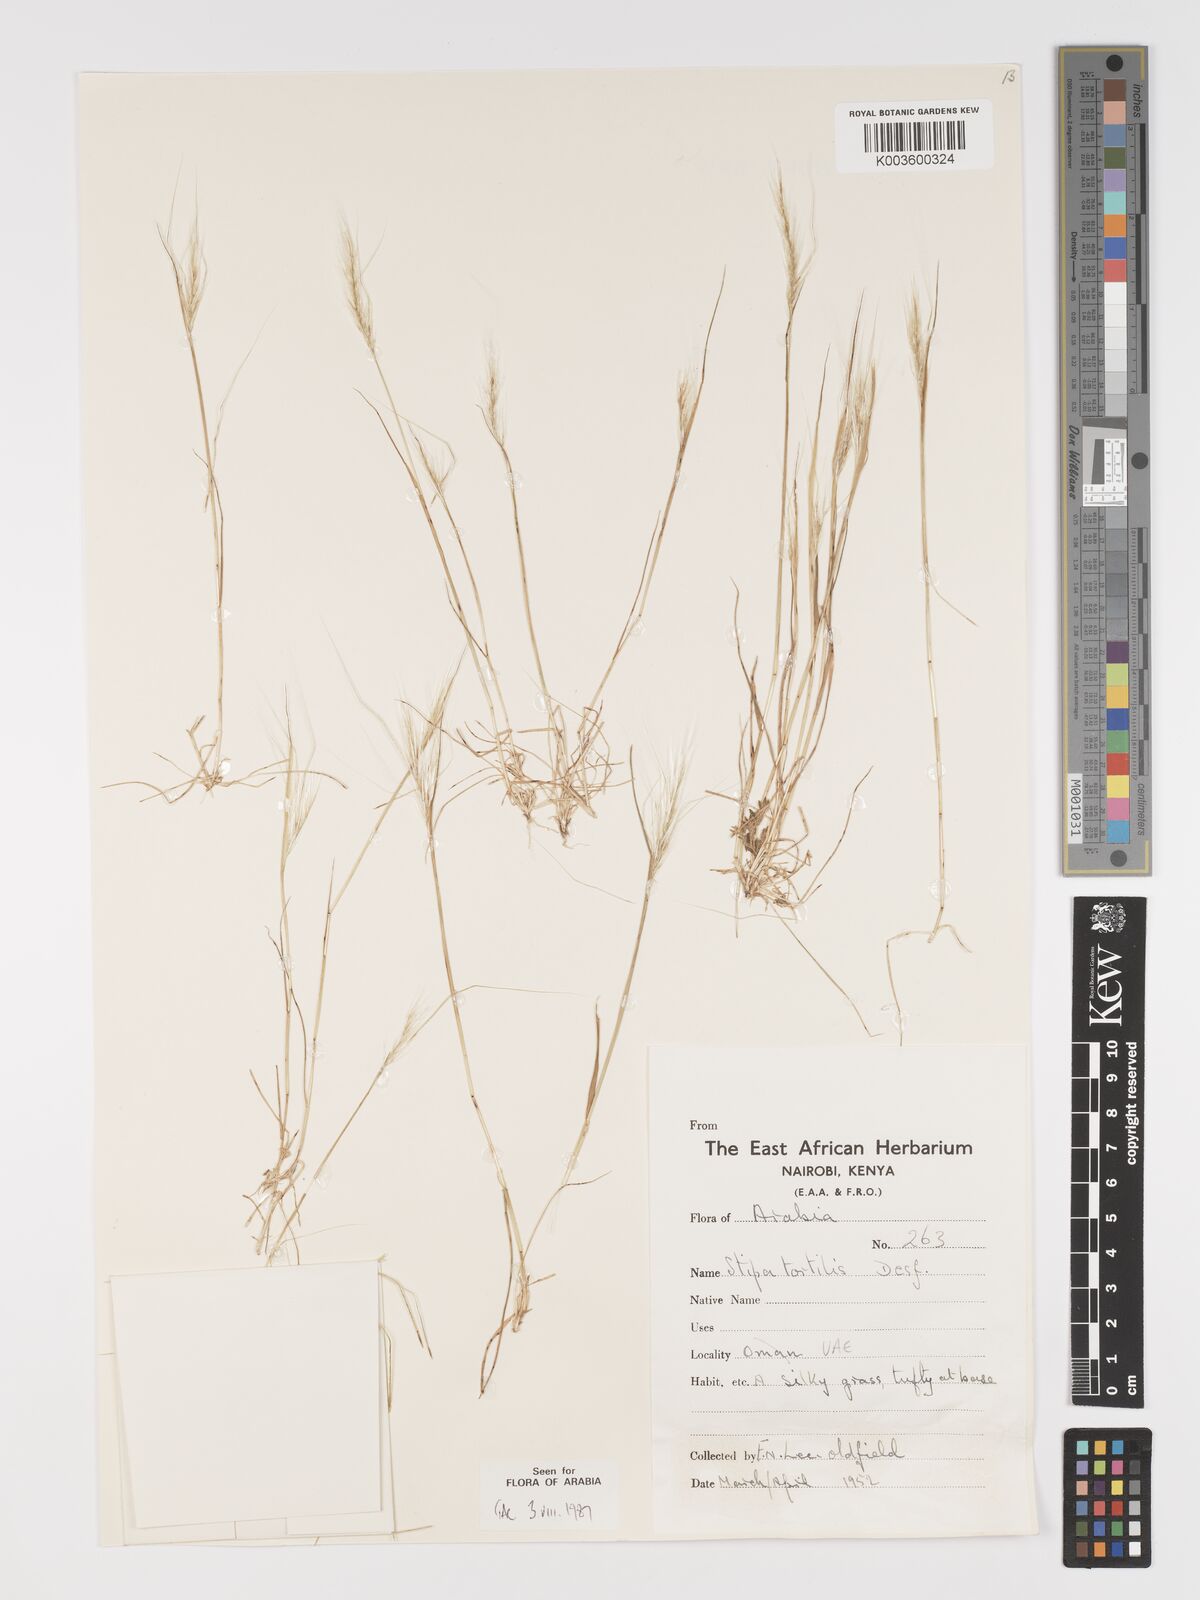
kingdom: Plantae
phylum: Tracheophyta
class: Liliopsida
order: Poales
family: Poaceae
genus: Stipellula
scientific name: Stipellula capensis
